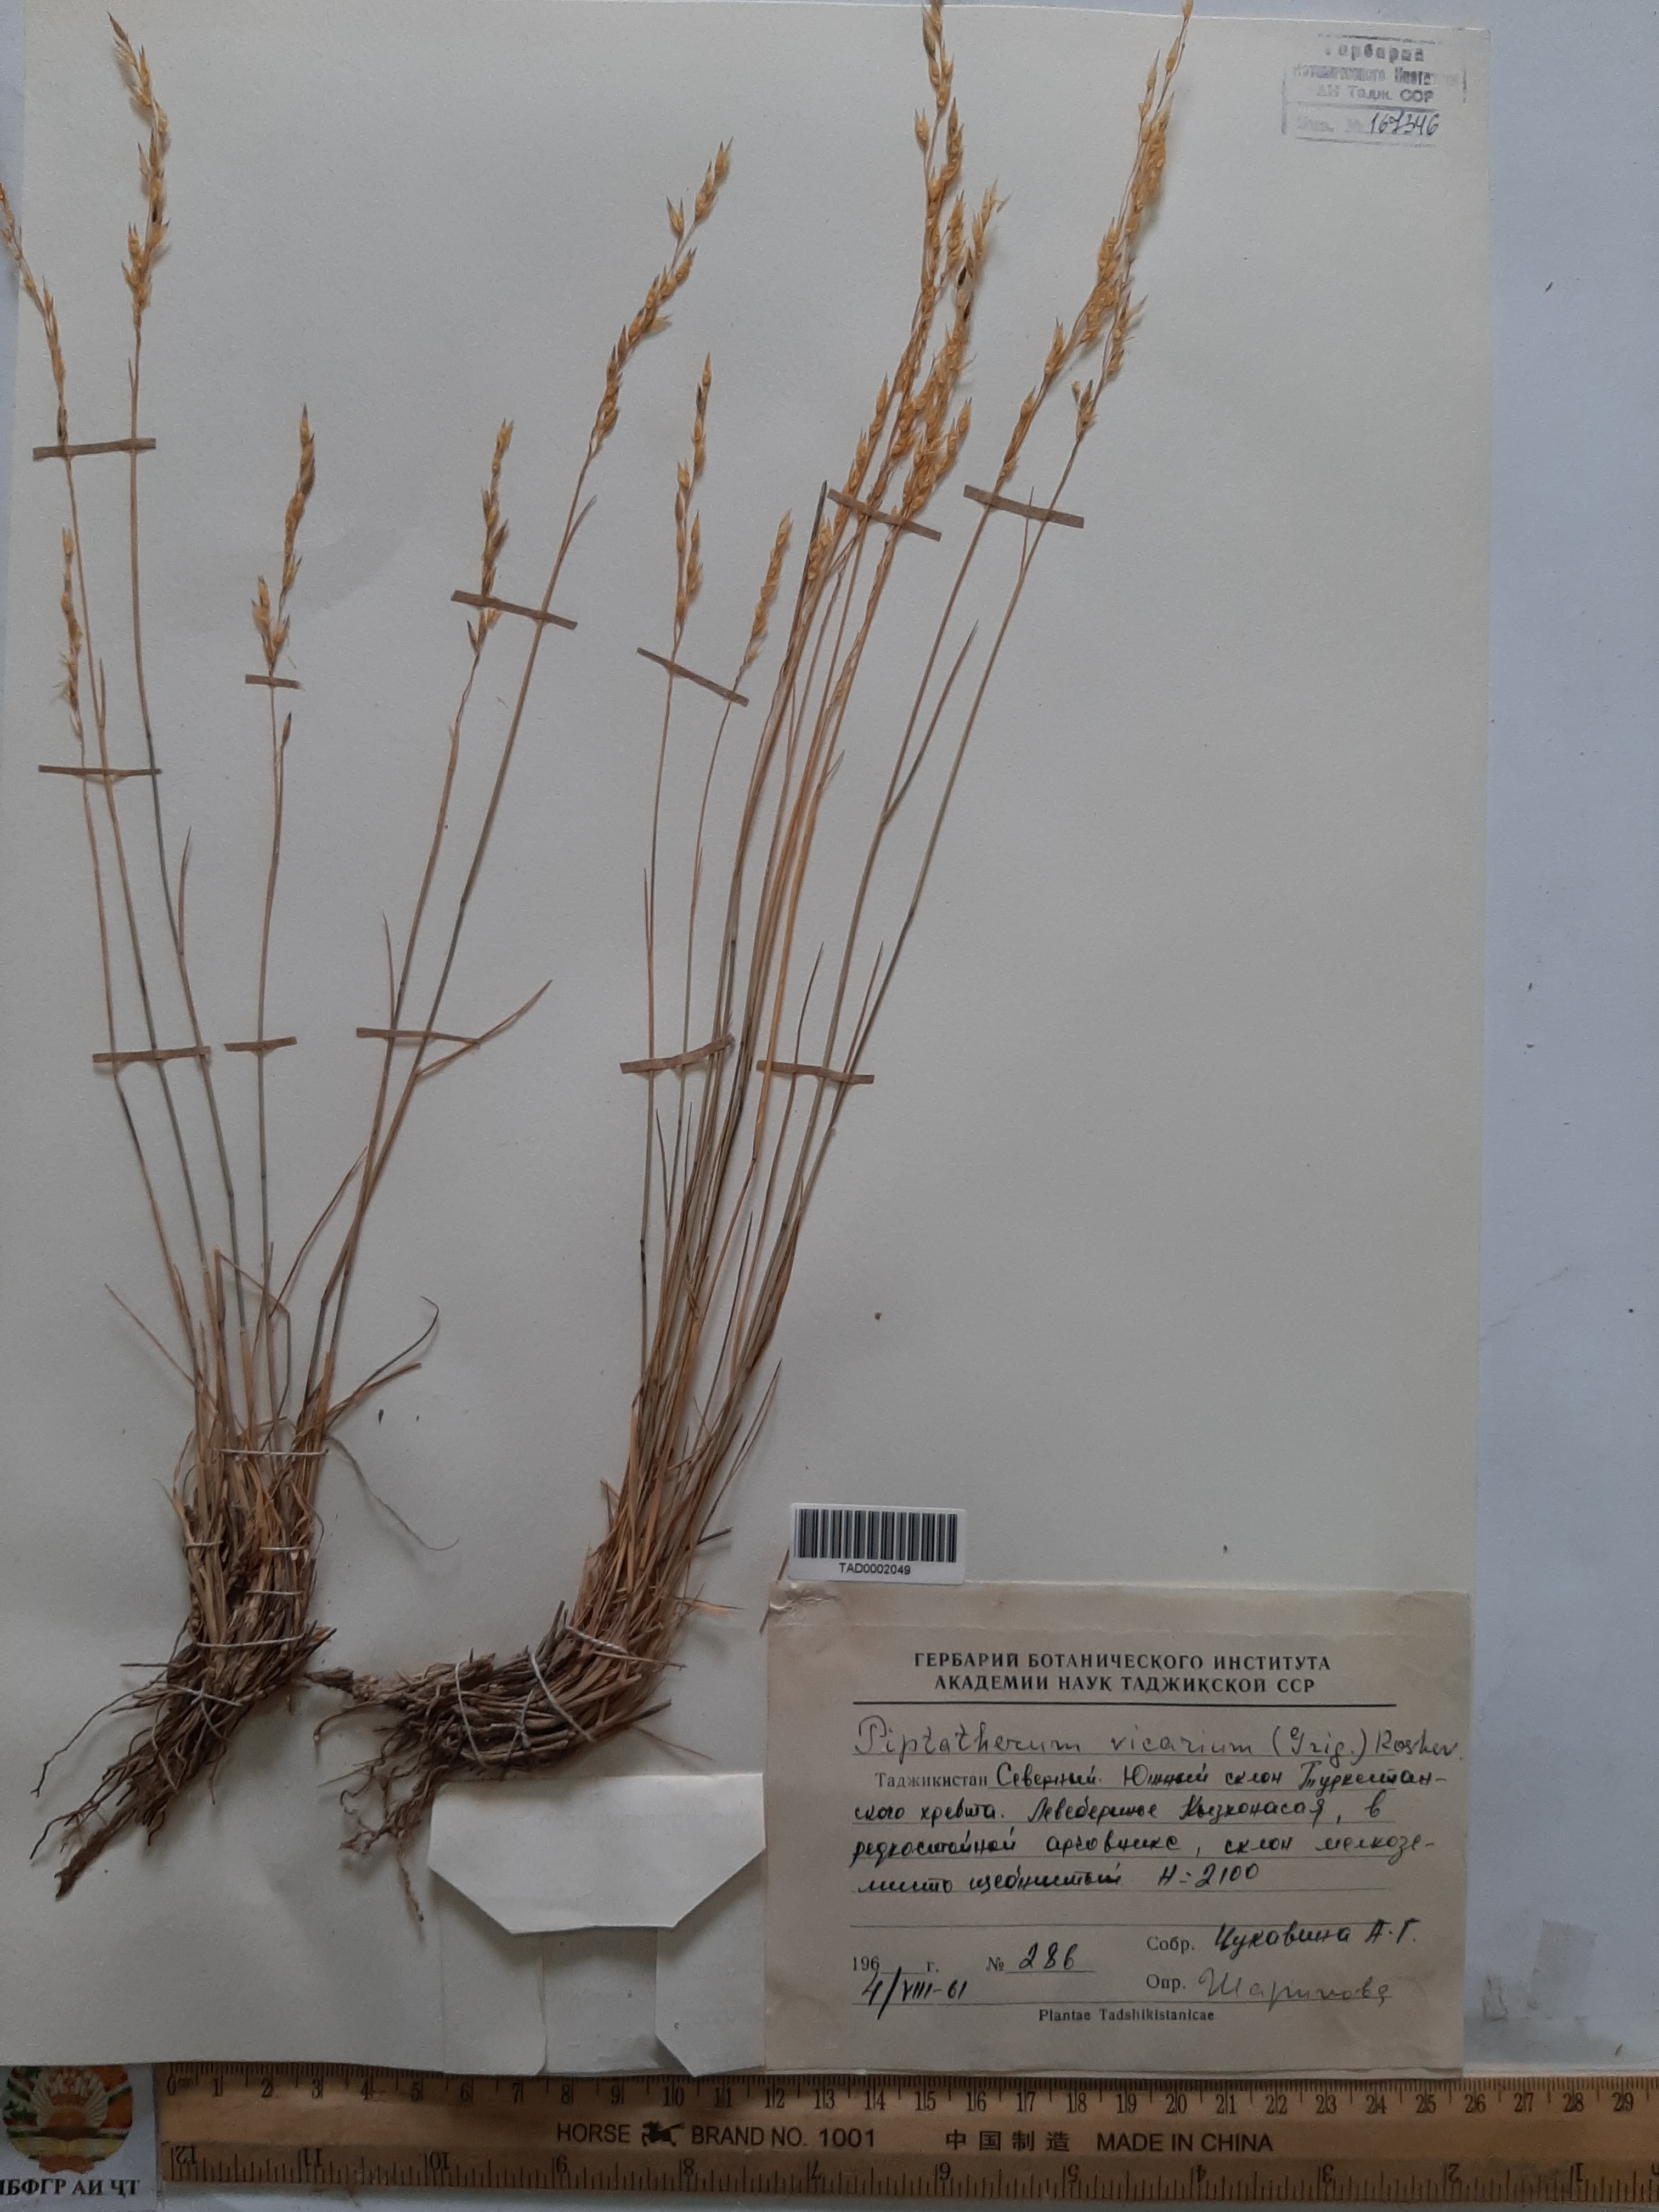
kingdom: Plantae
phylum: Tracheophyta
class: Liliopsida
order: Poales
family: Poaceae
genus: Piptatherum
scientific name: Piptatherum sogdianum
